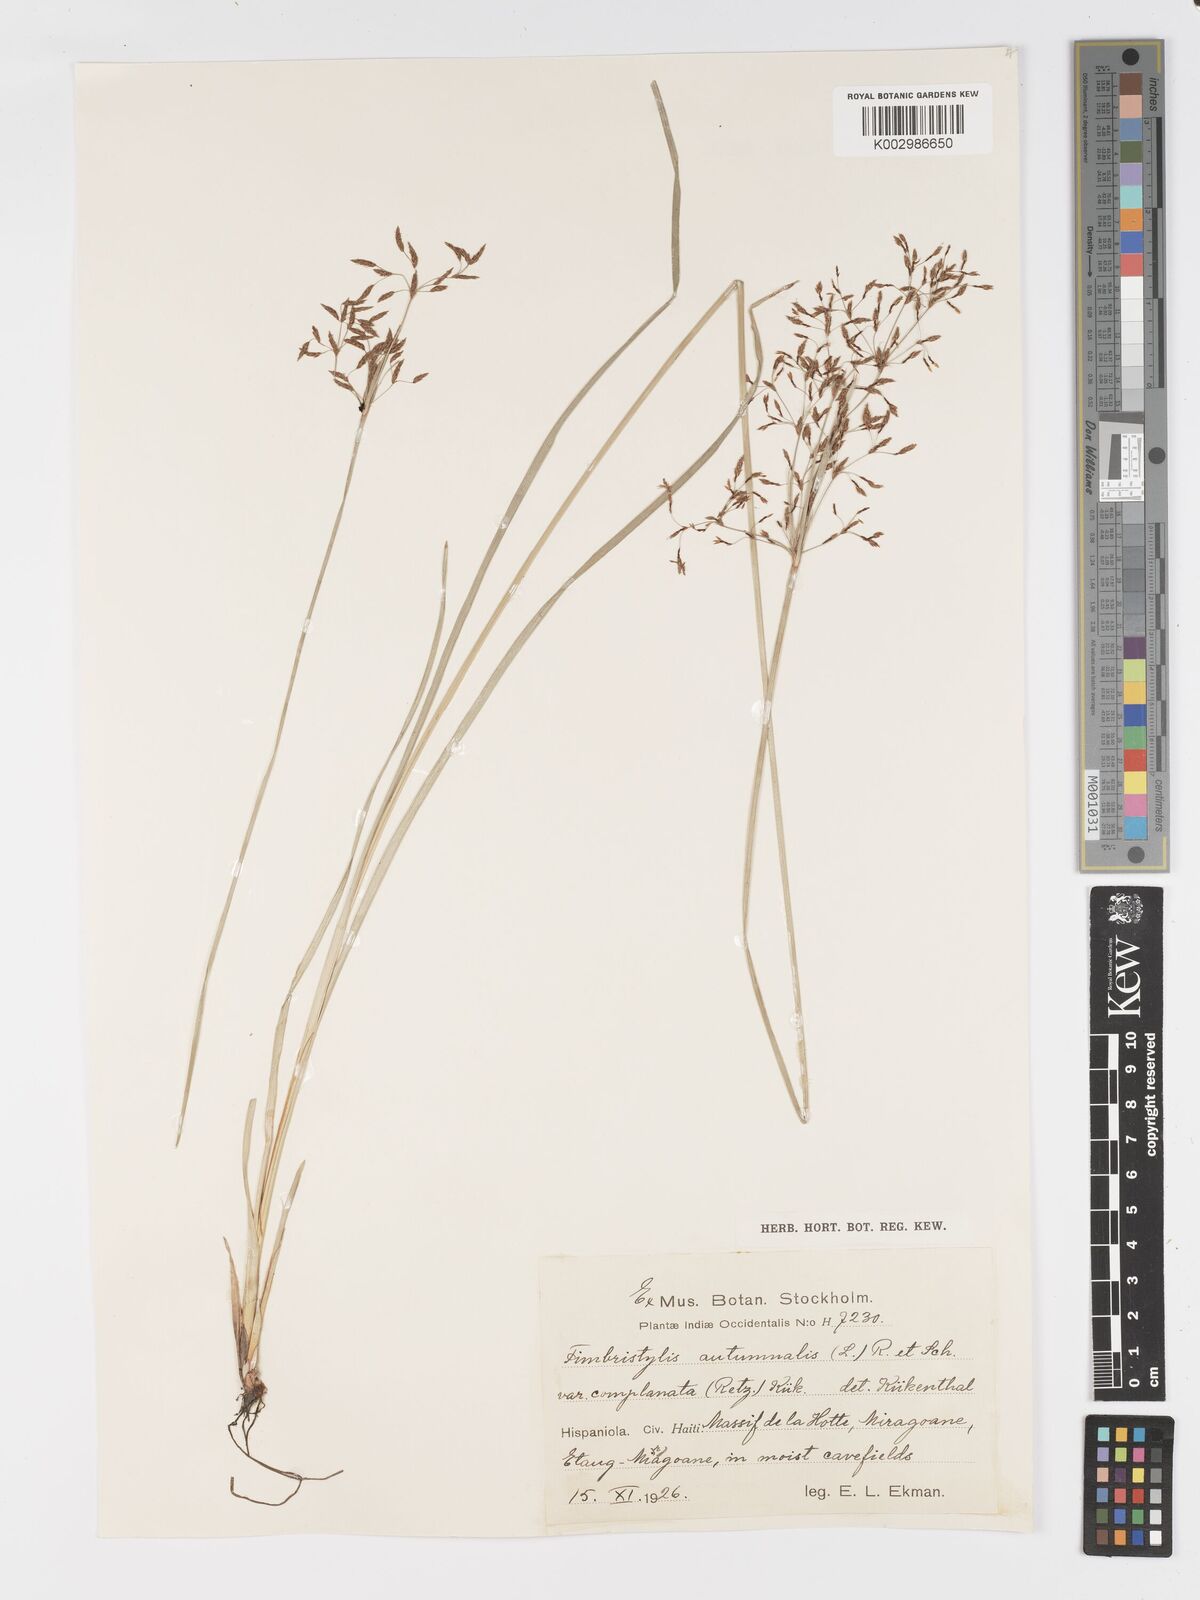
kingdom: Plantae
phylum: Tracheophyta
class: Liliopsida
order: Poales
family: Cyperaceae
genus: Fimbristylis
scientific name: Fimbristylis autumnalis
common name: Slender fimbristylis
